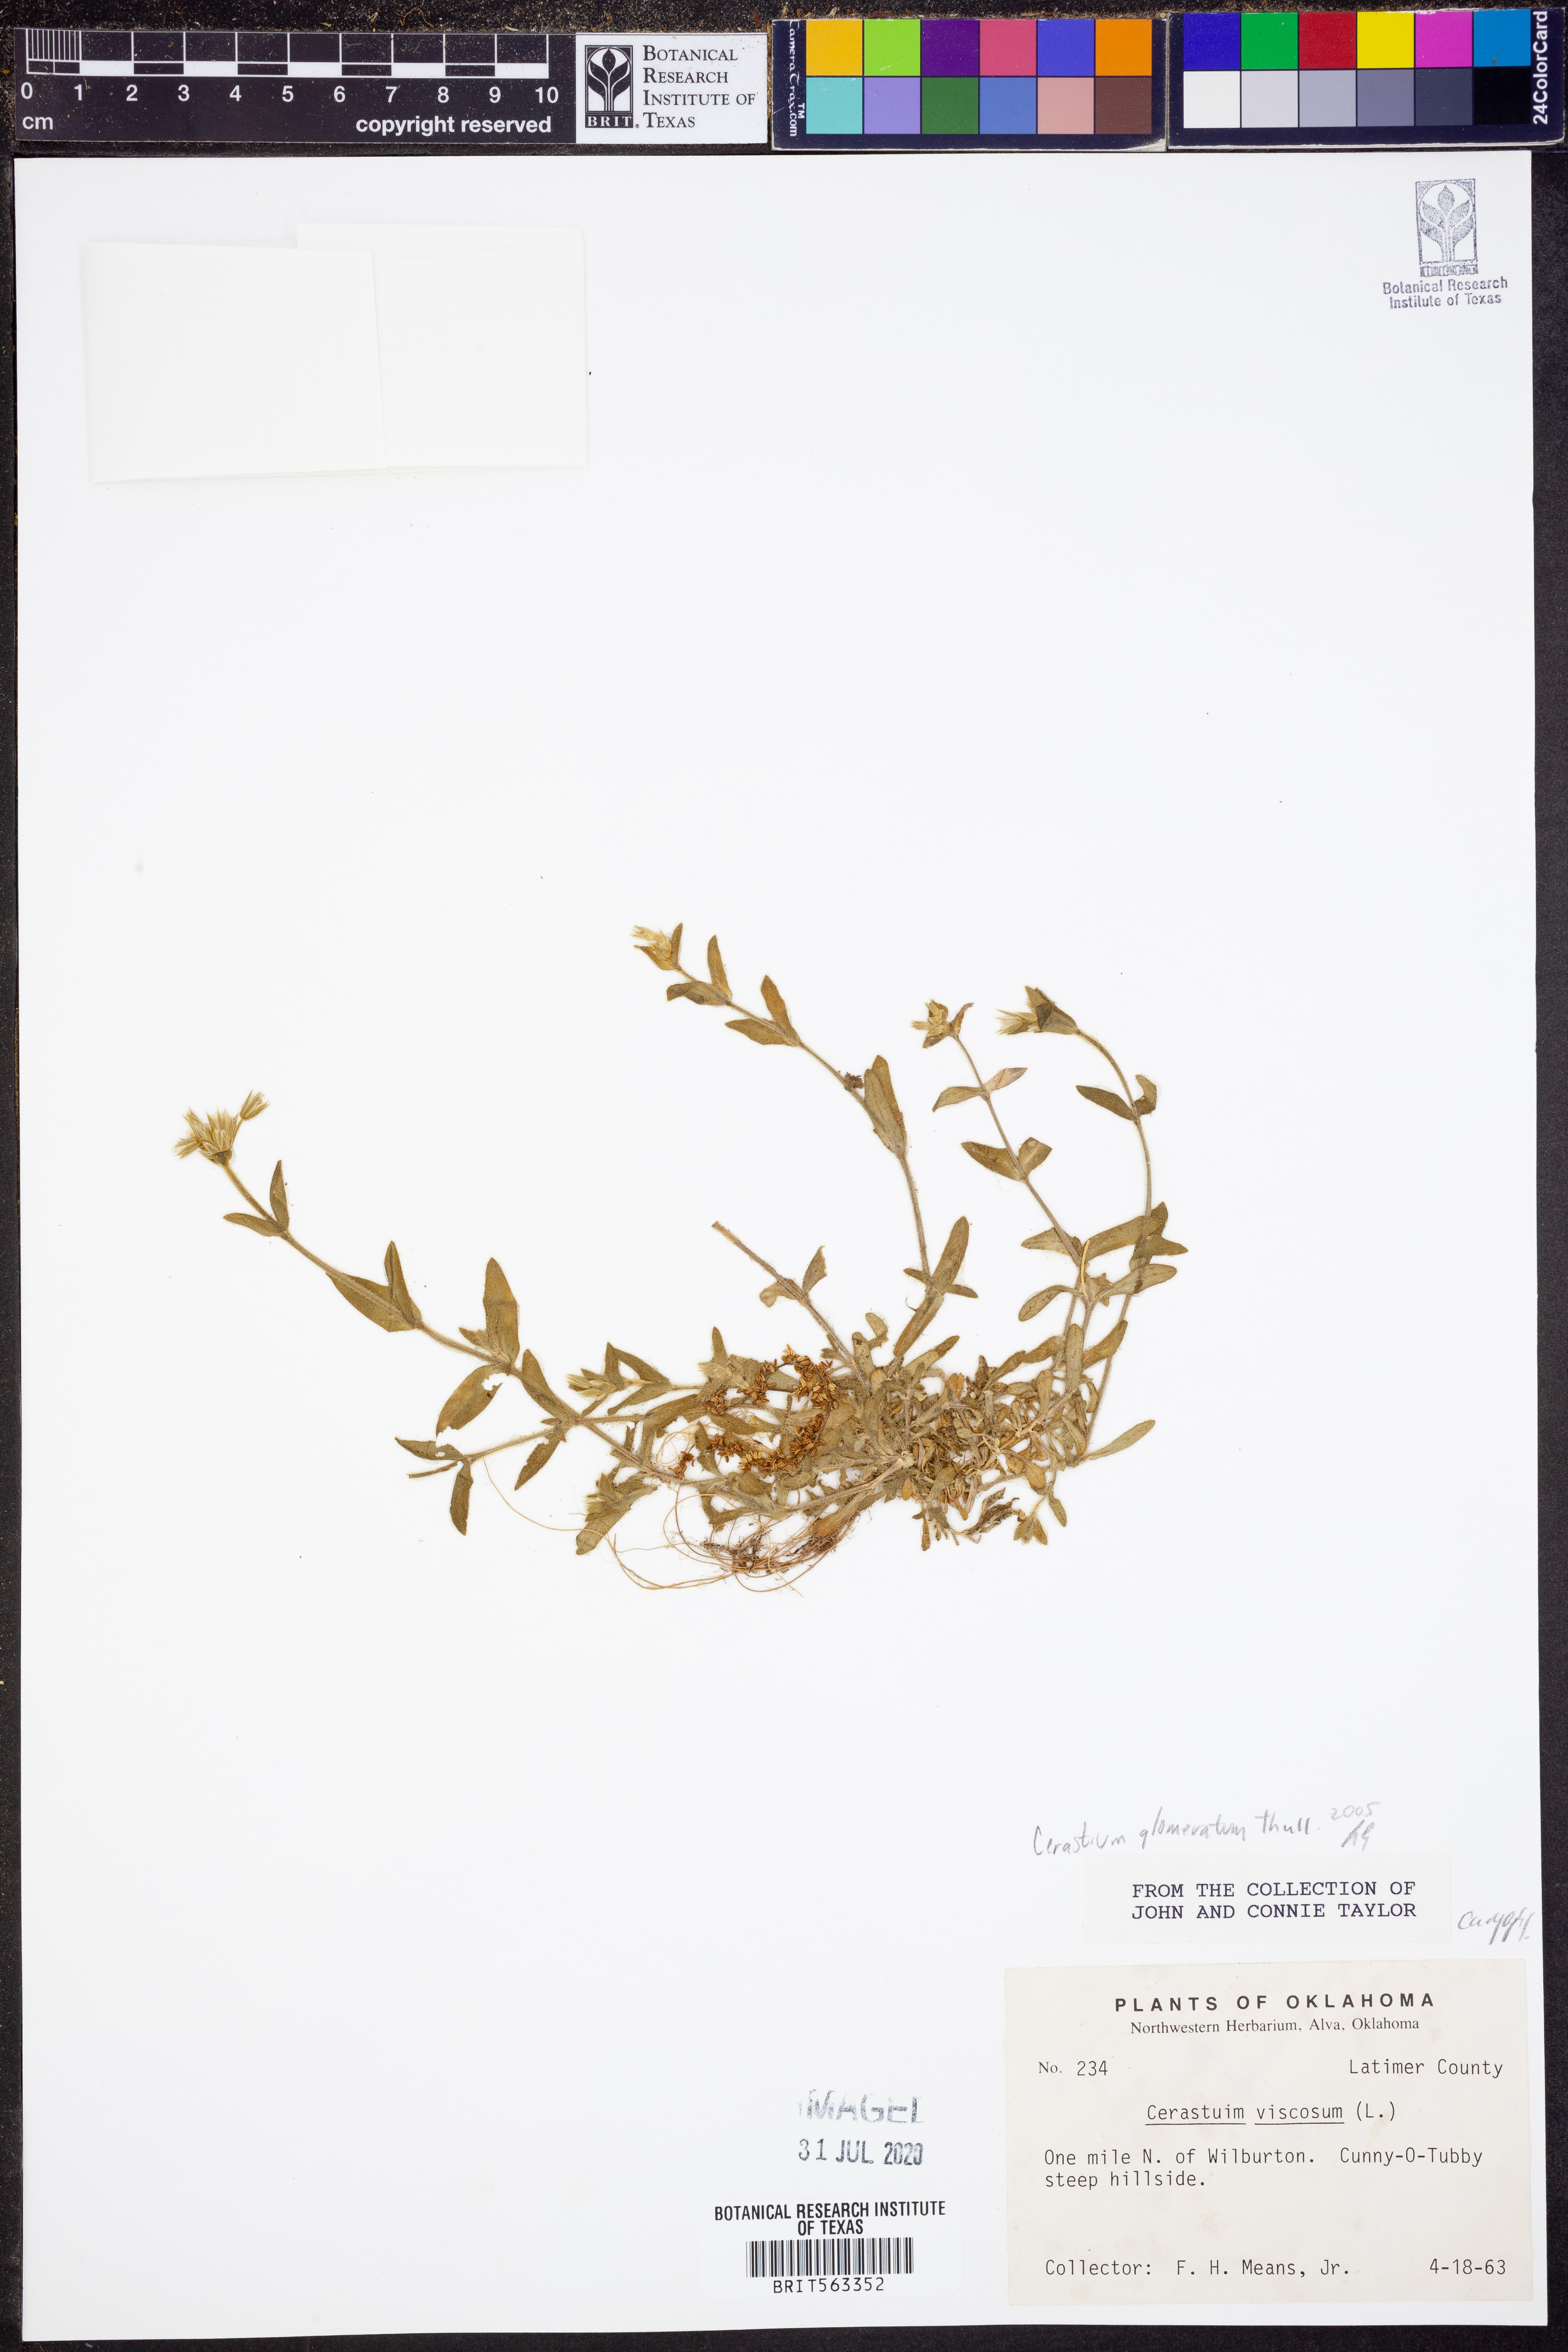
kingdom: Plantae
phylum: Tracheophyta
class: Magnoliopsida
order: Caryophyllales
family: Caryophyllaceae
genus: Cerastium
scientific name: Cerastium glomeratum
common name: Sticky chickweed
